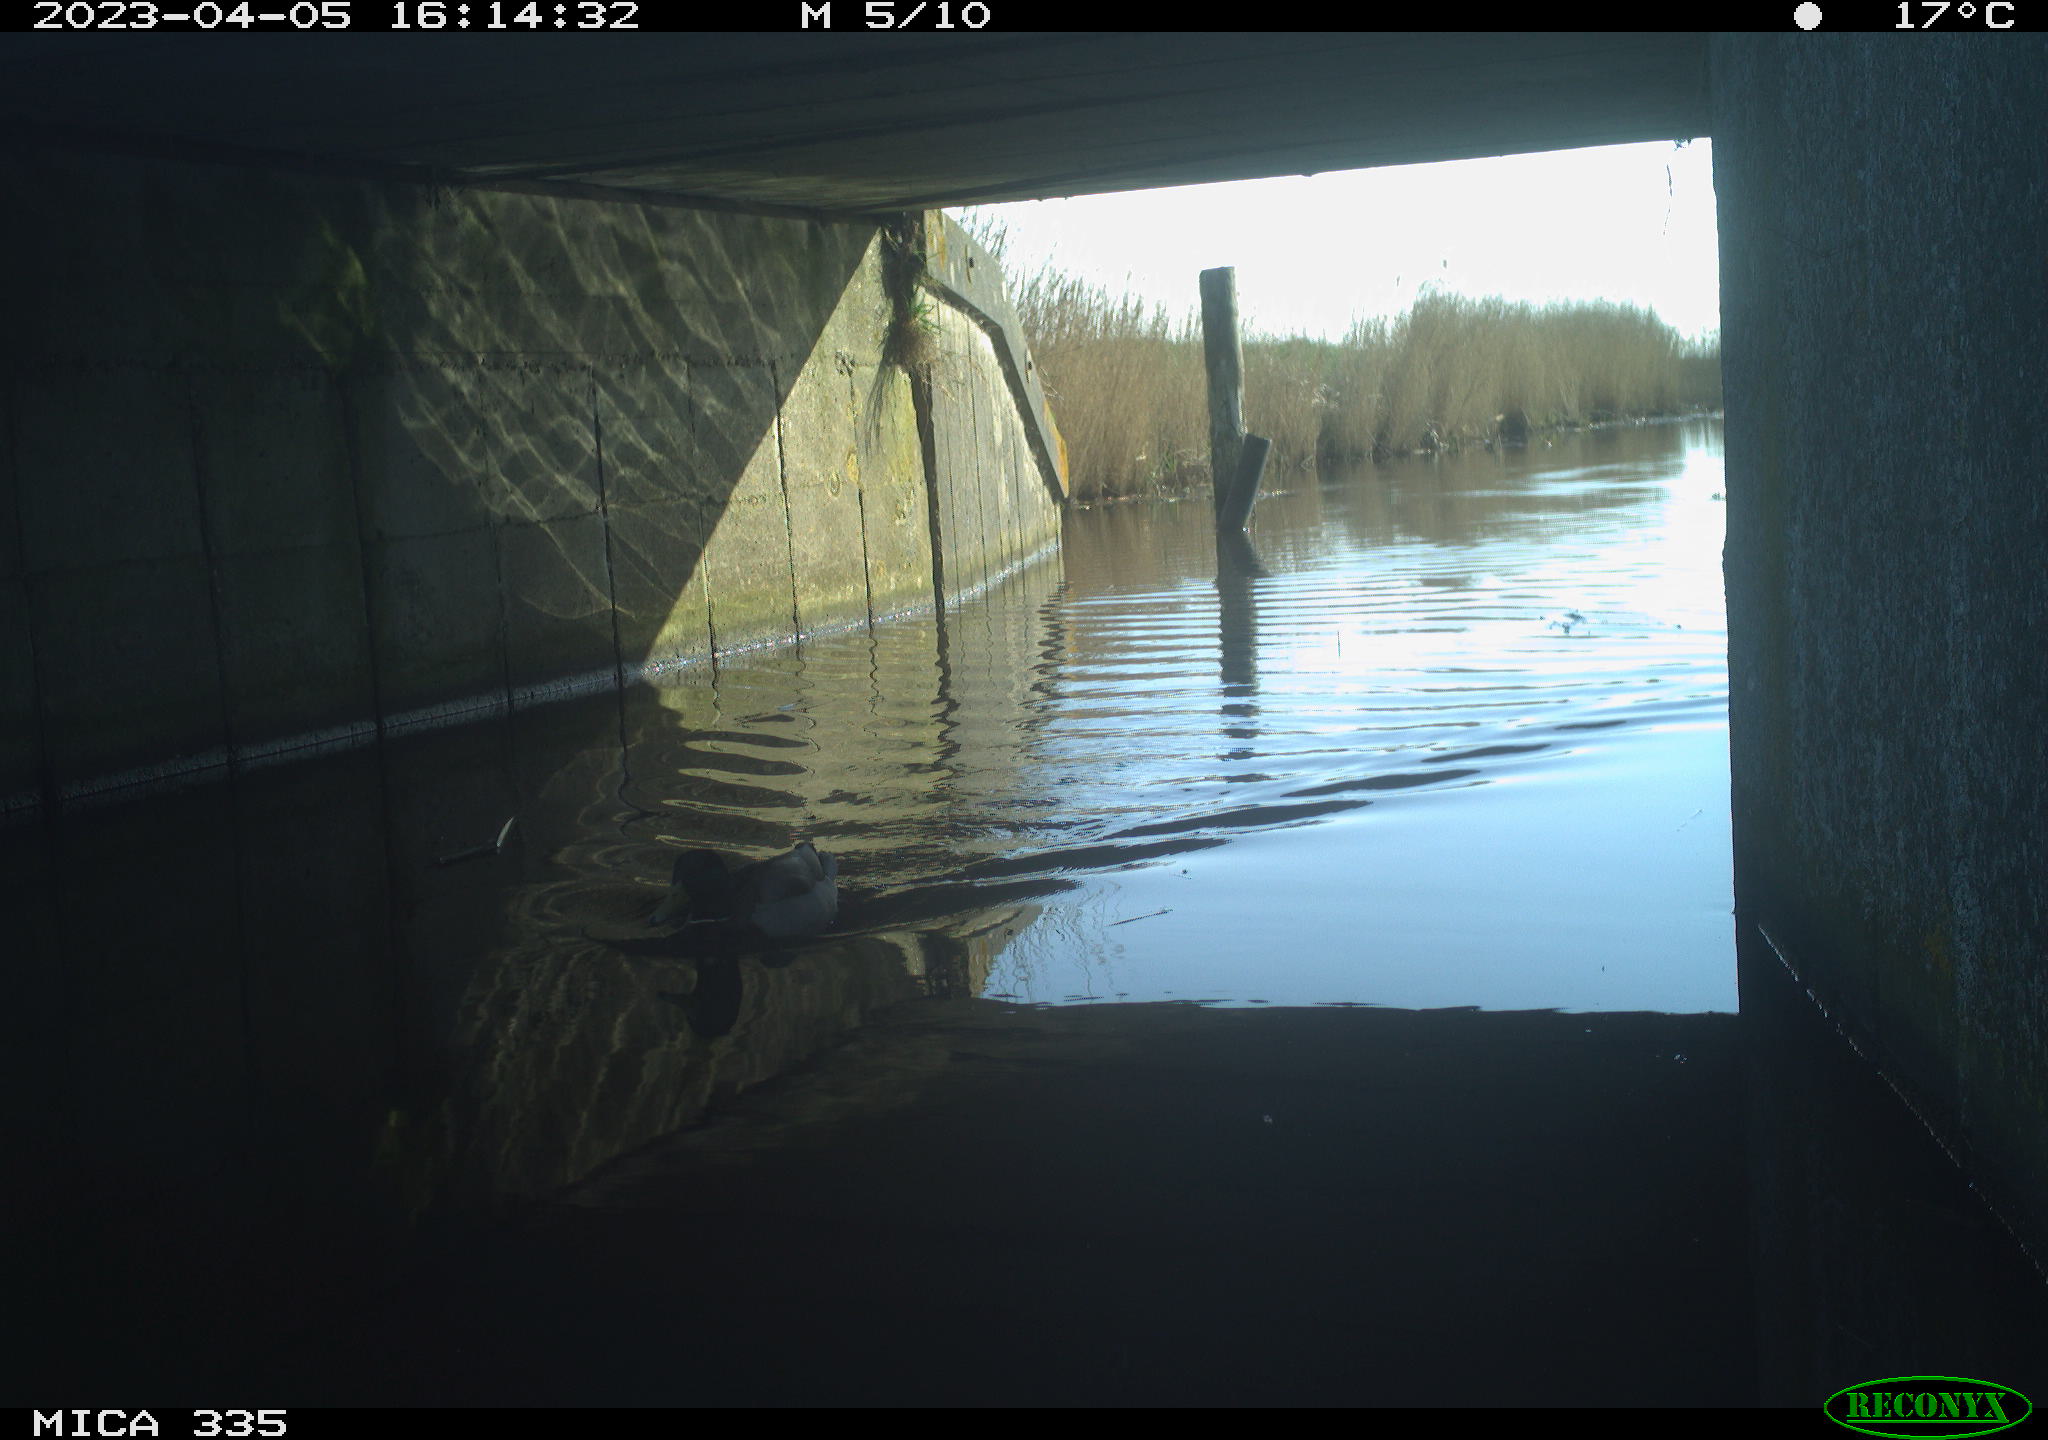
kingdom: Animalia
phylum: Chordata
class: Aves
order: Anseriformes
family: Anatidae
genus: Anas
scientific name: Anas
